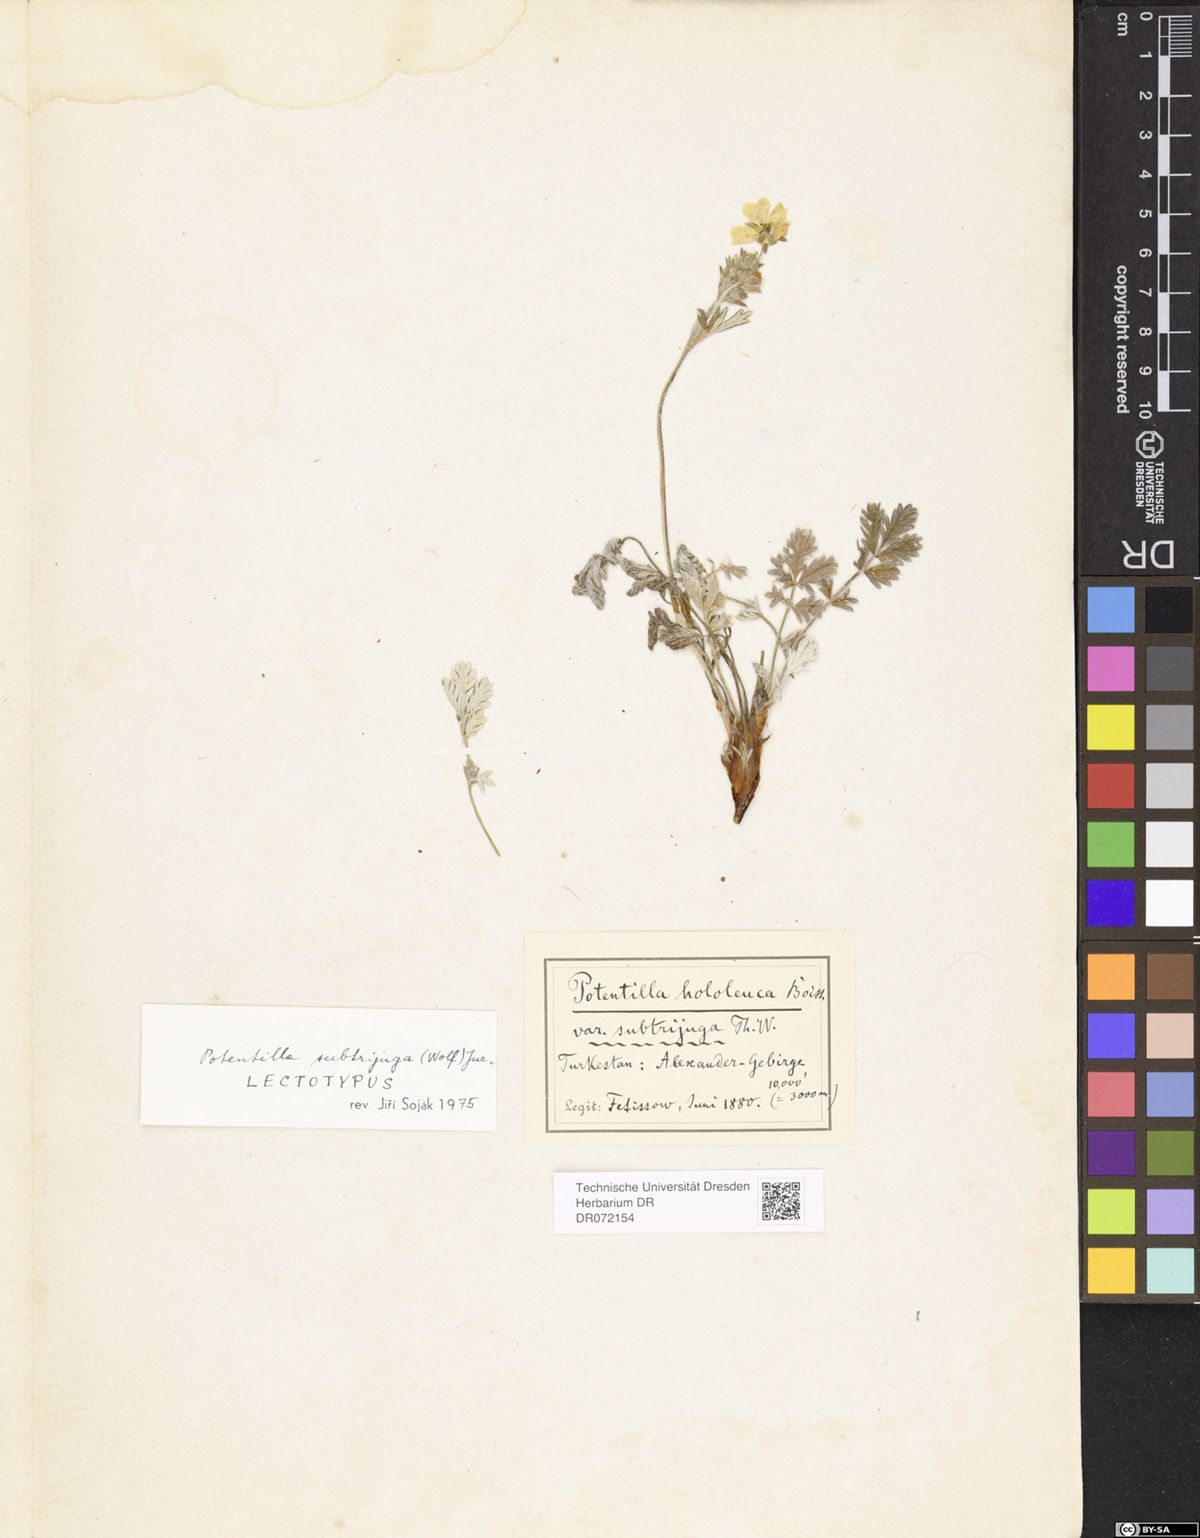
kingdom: Plantae
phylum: Tracheophyta
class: Magnoliopsida
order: Rosales
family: Rosaceae
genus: Potentilla
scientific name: Potentilla hololeuca
